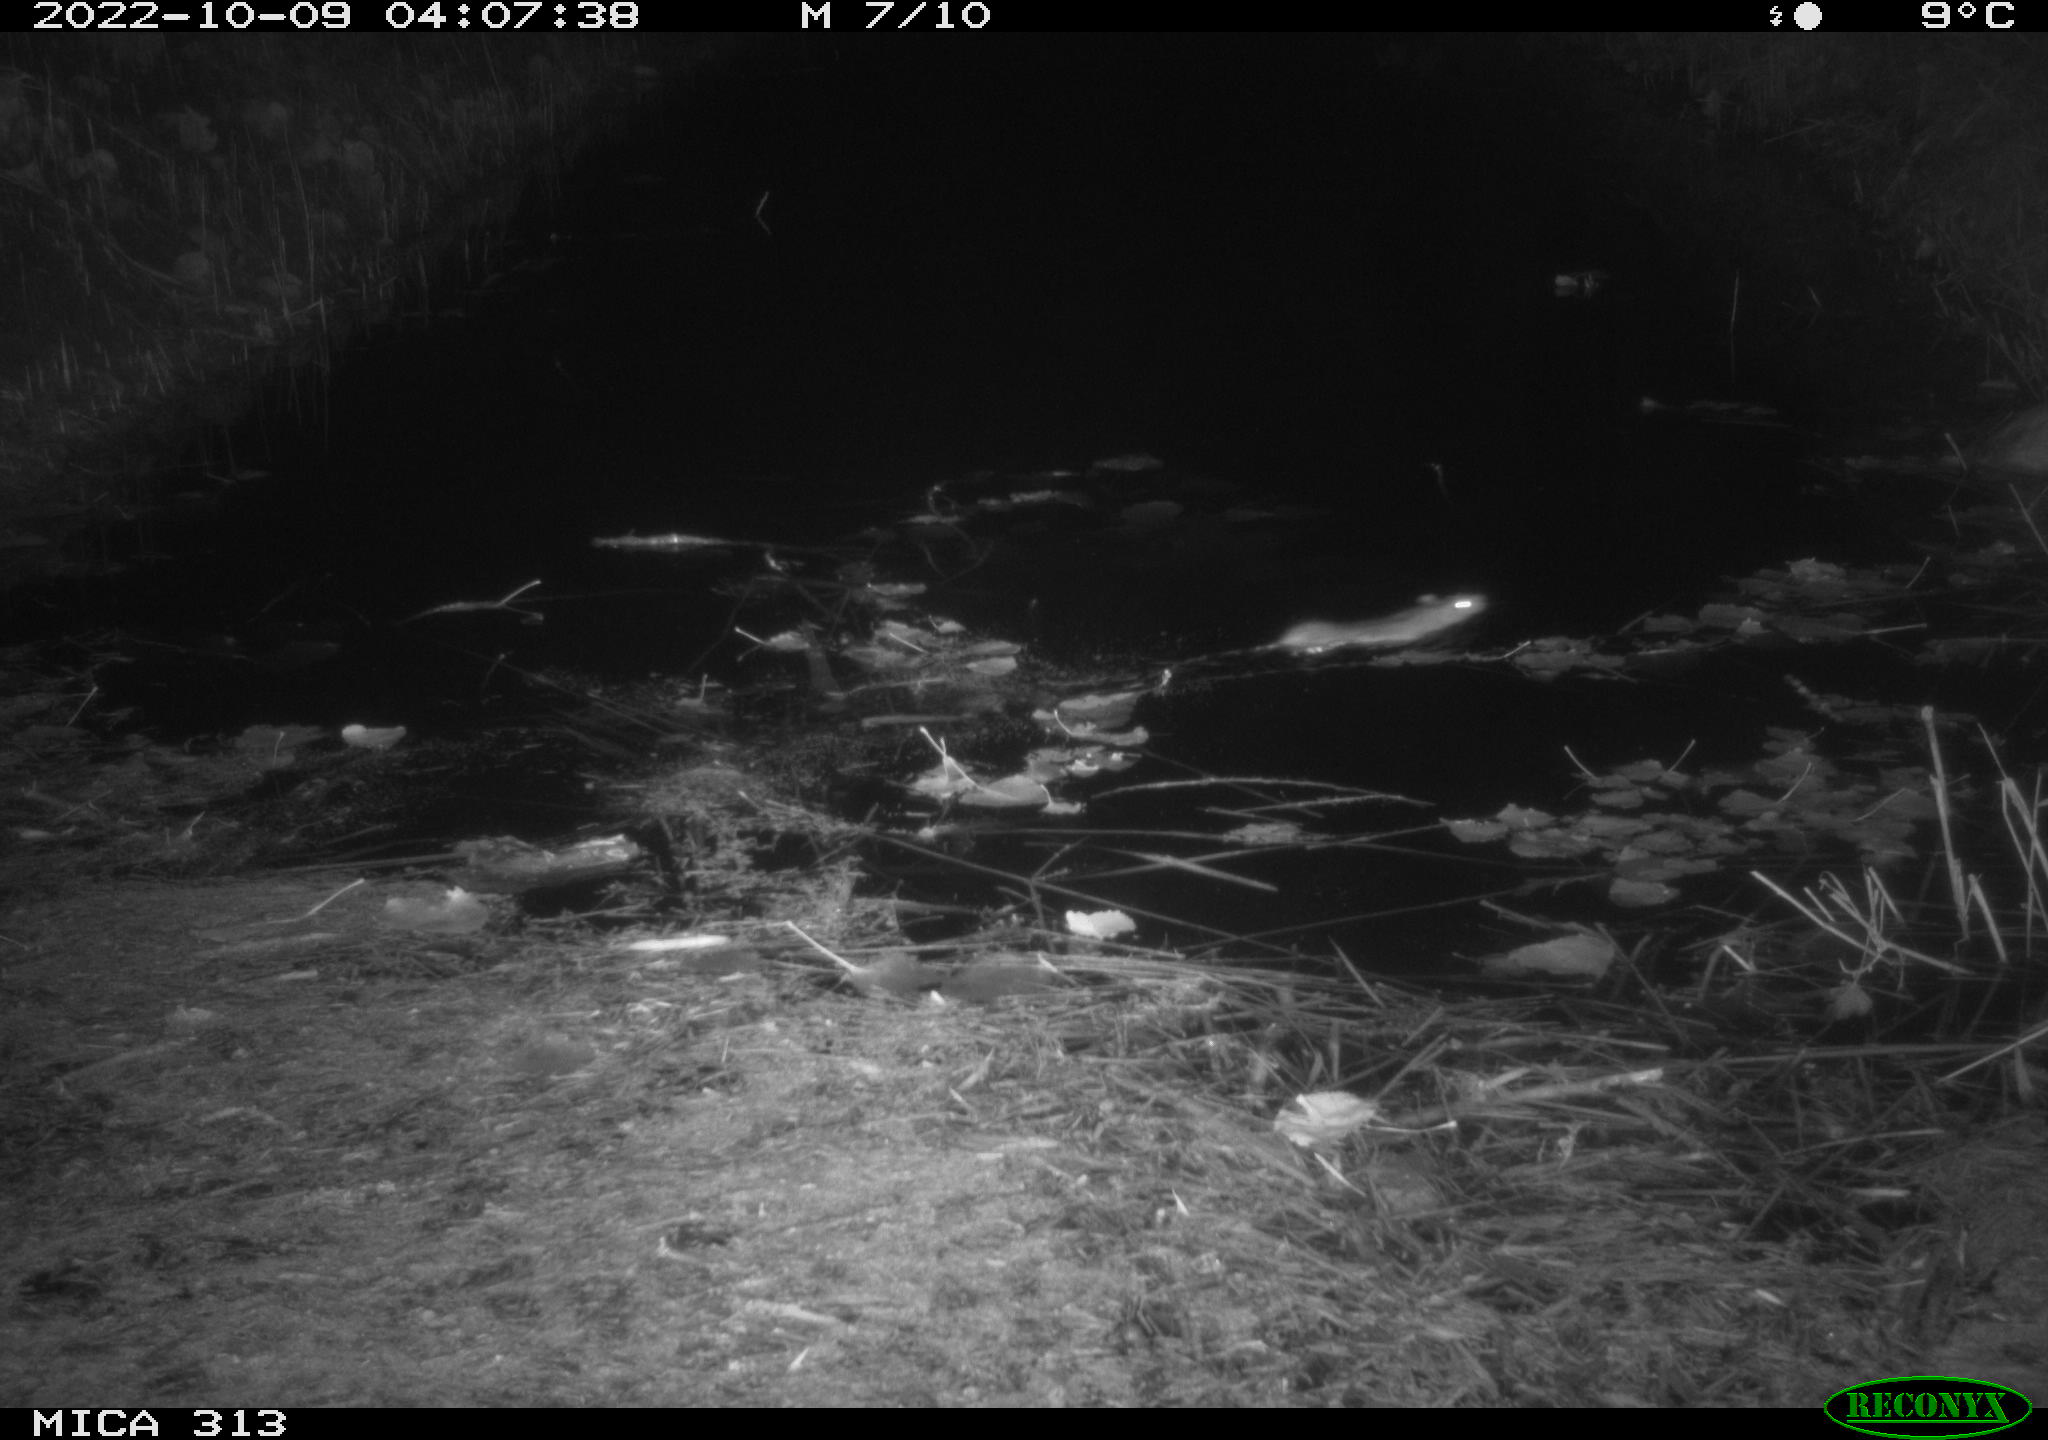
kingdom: Animalia
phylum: Chordata
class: Mammalia
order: Rodentia
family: Muridae
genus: Rattus
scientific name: Rattus norvegicus
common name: Brown rat
